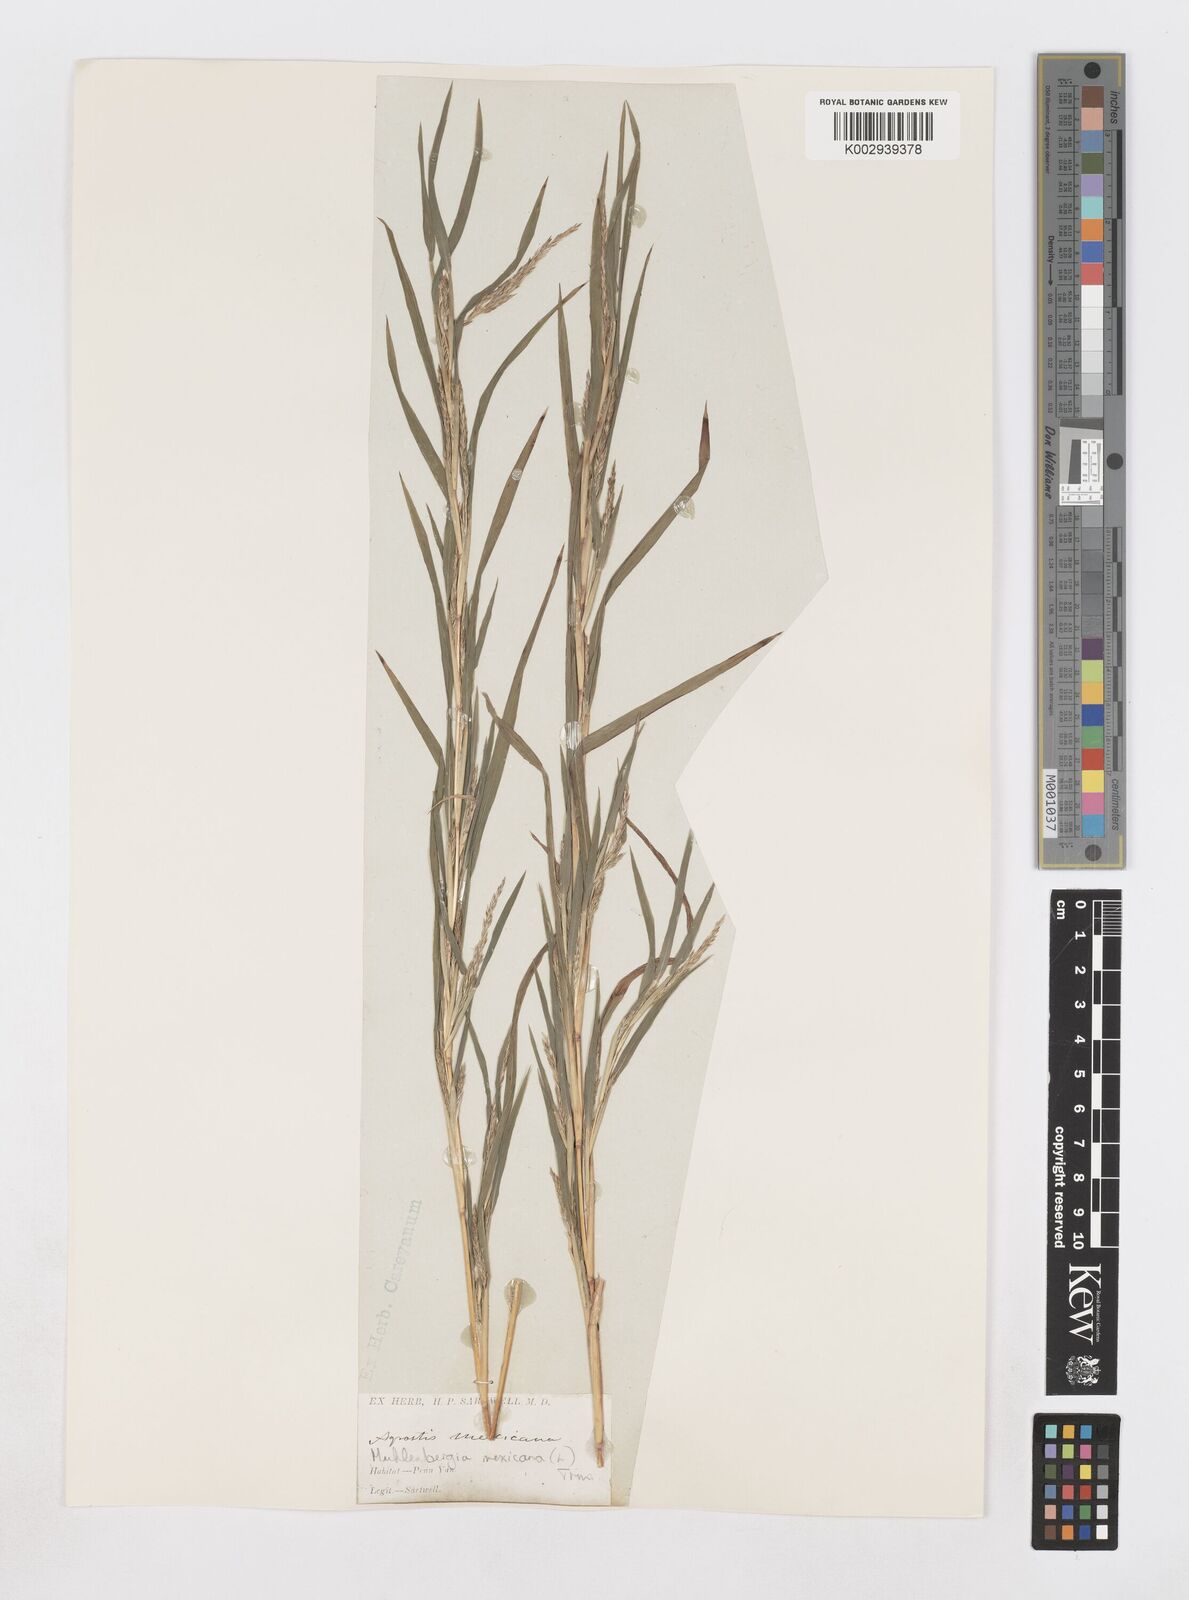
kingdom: Plantae
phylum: Tracheophyta
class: Liliopsida
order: Poales
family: Poaceae
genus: Muhlenbergia
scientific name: Muhlenbergia mexicana
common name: Mexican muhly
